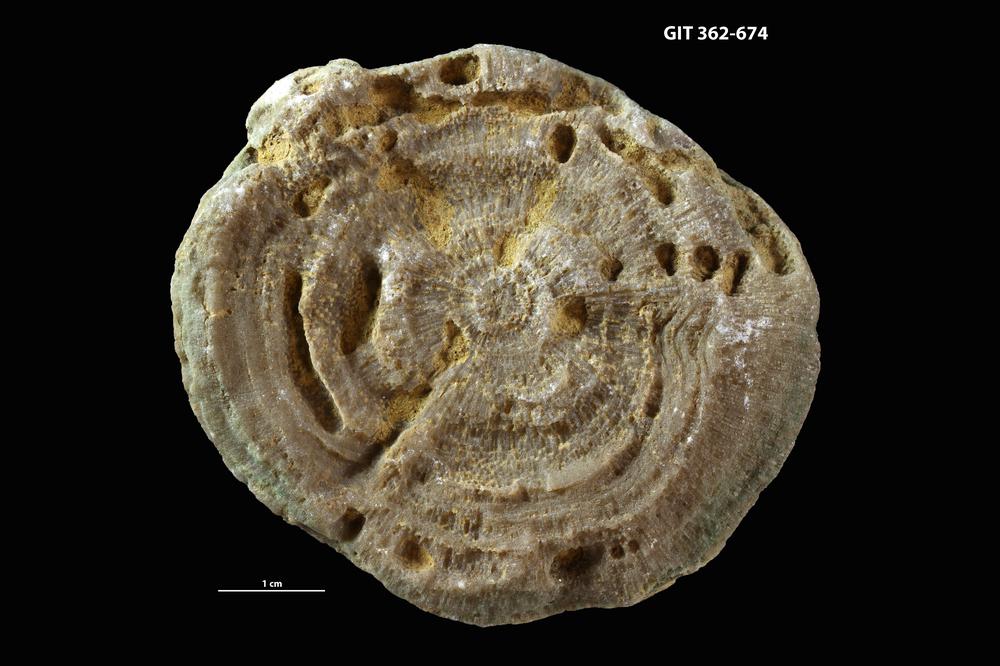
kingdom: Animalia
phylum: Bryozoa
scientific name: Bryozoa
